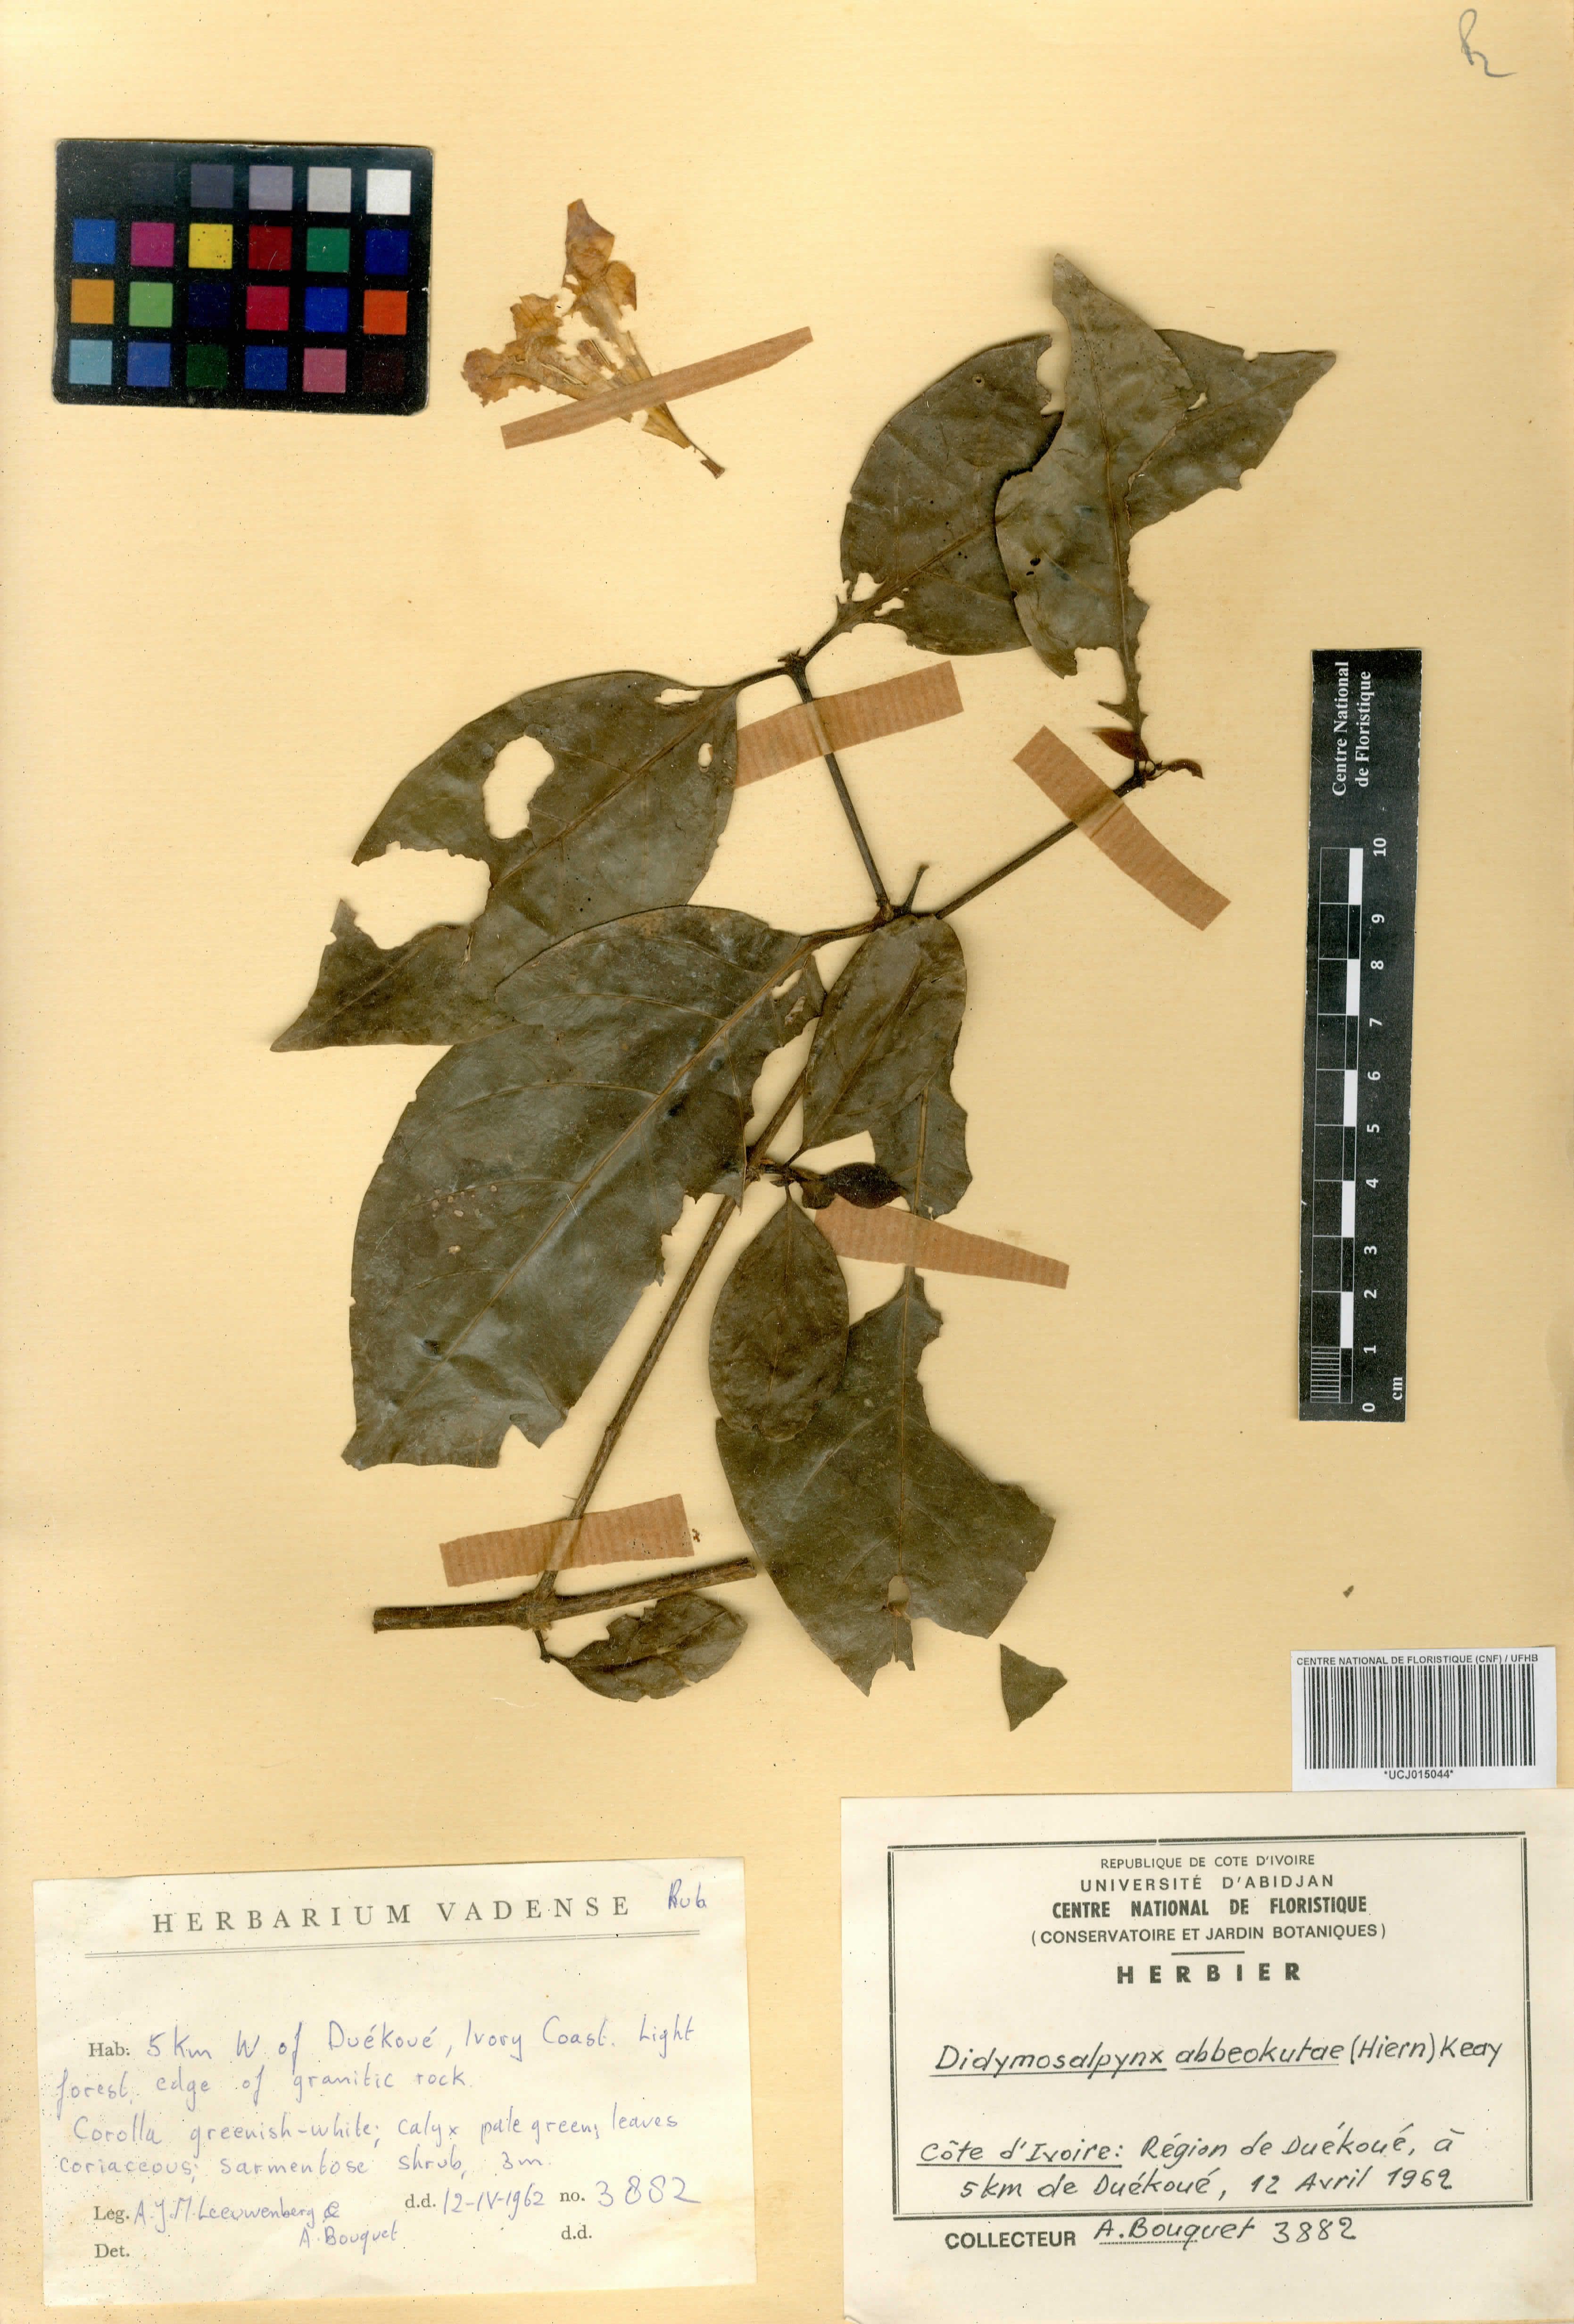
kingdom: Plantae
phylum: Tracheophyta
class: Magnoliopsida
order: Gentianales
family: Rubiaceae
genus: Didymosalpinx
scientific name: Didymosalpinx abbeokutae
